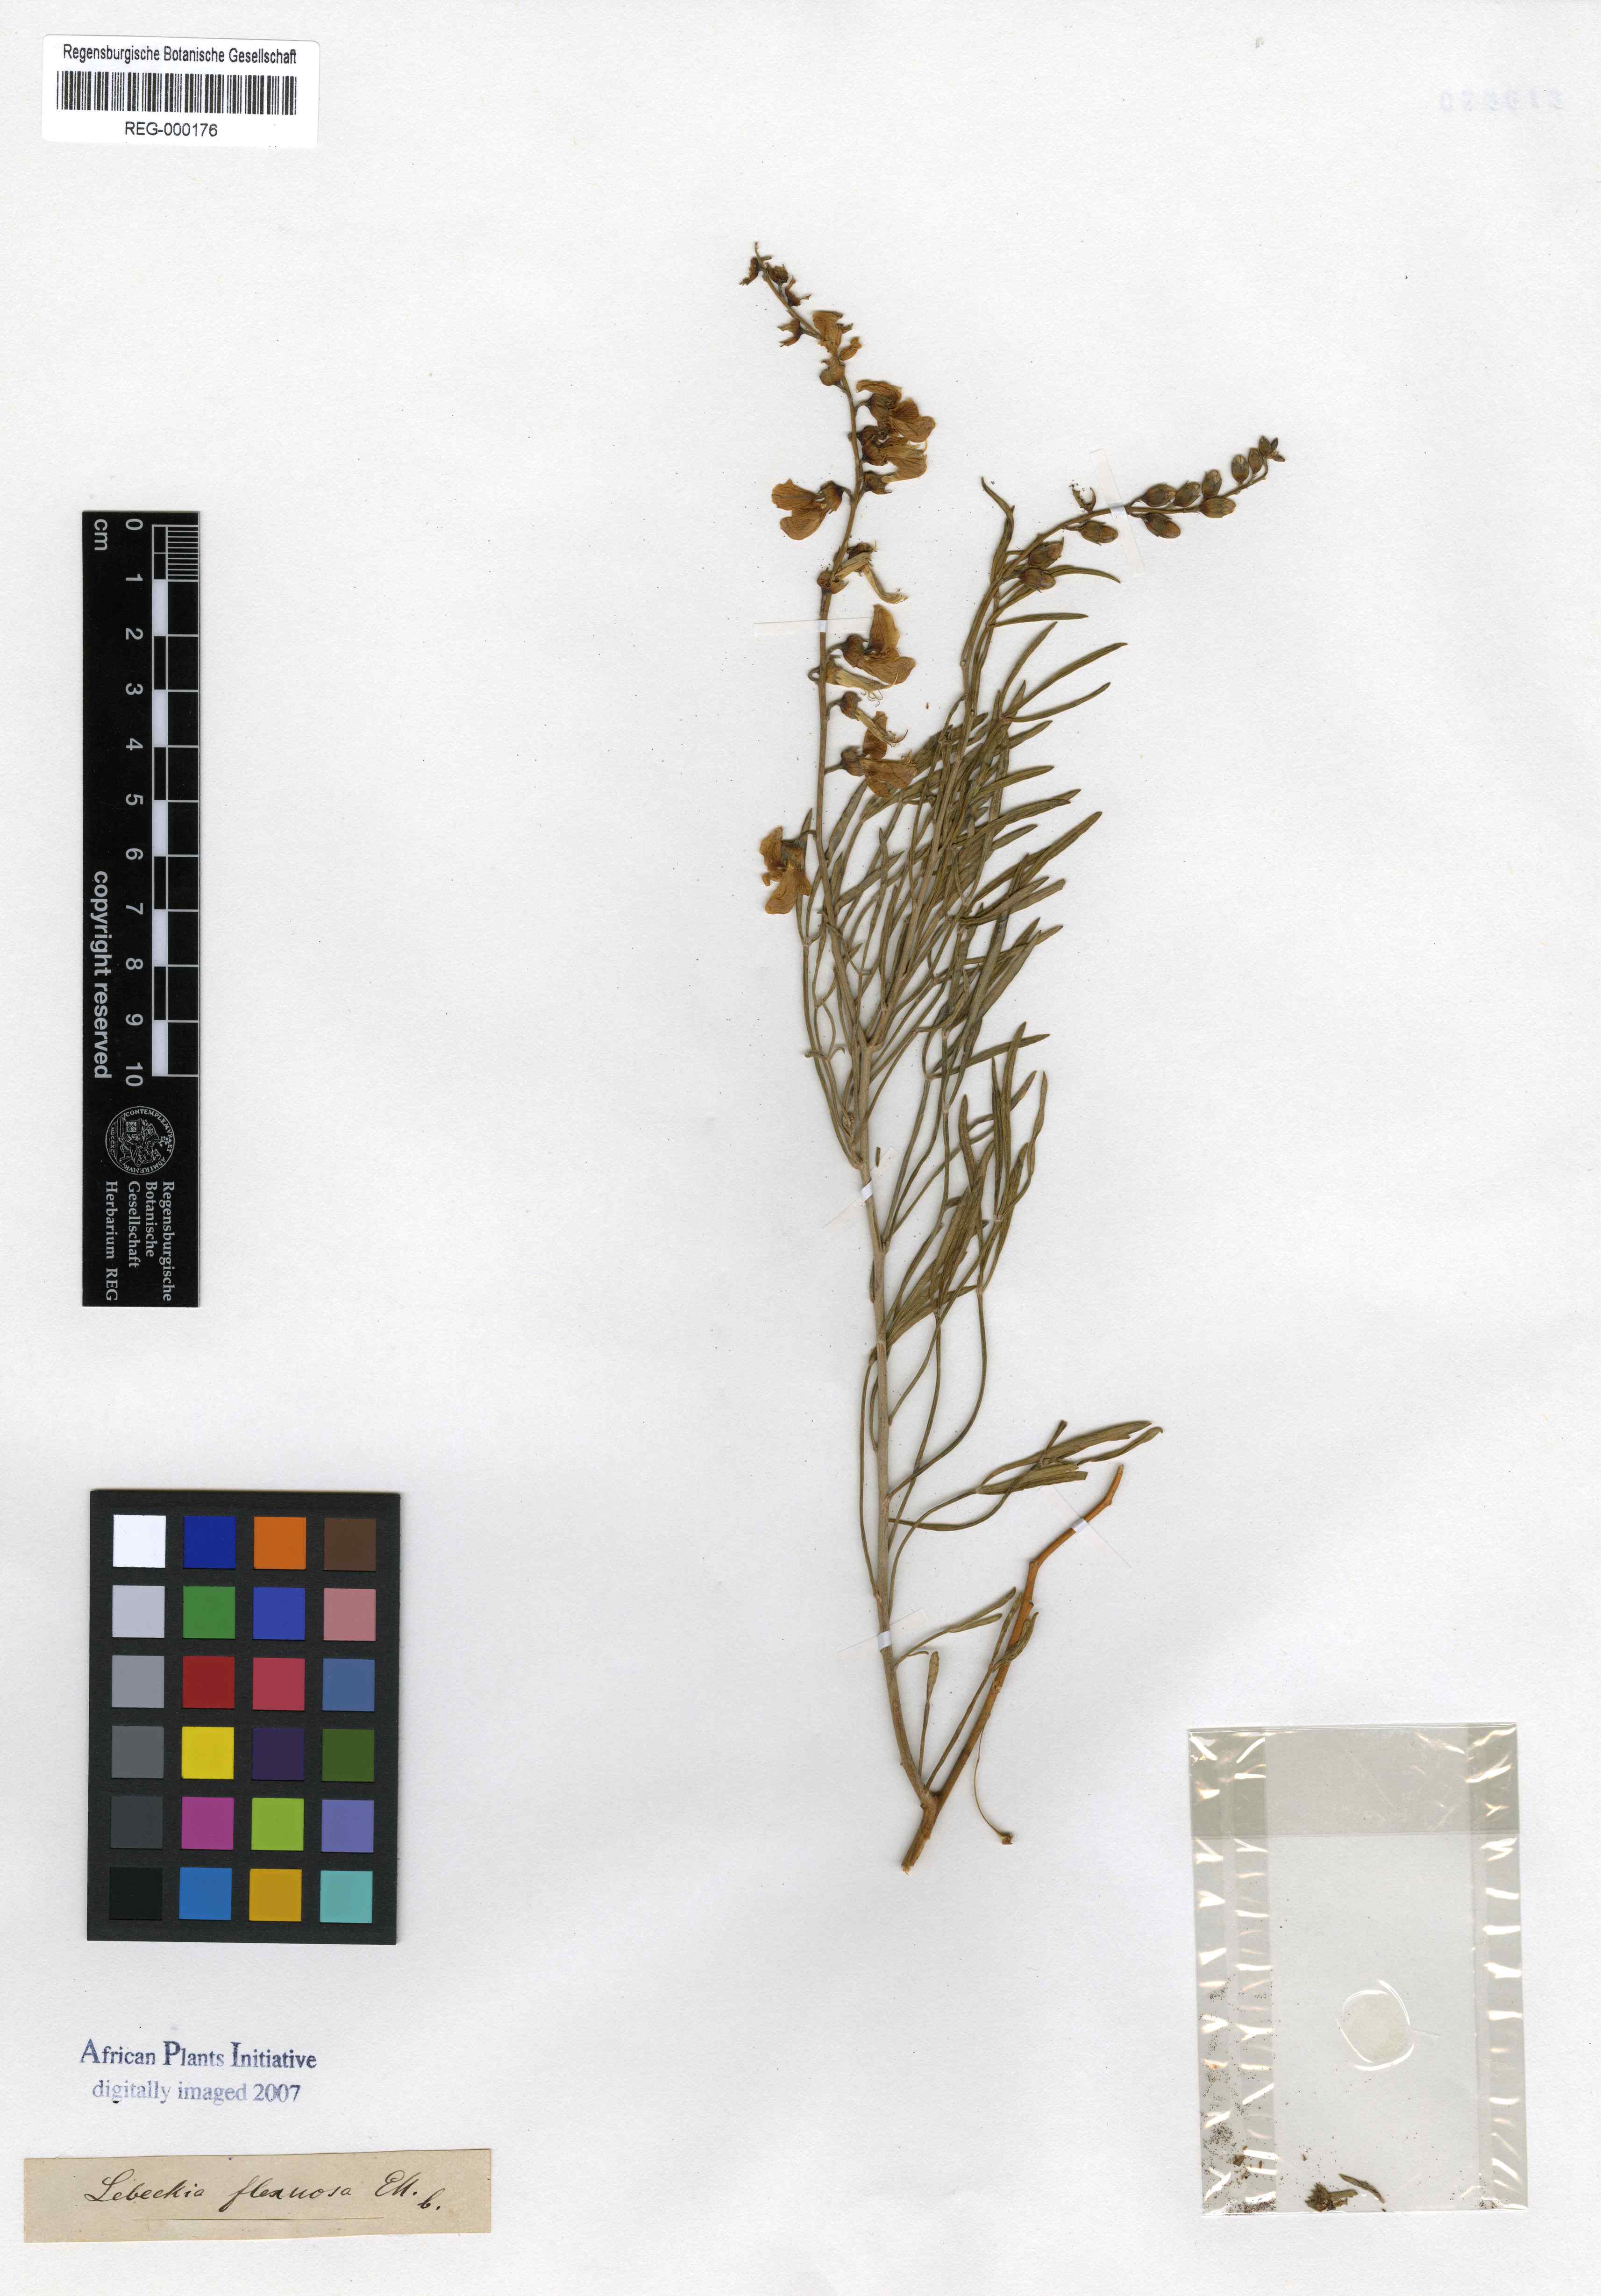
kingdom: Plantae
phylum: Tracheophyta
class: Magnoliopsida
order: Fabales
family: Fabaceae
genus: Calobota
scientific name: Calobota sericea
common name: Silver-pea
